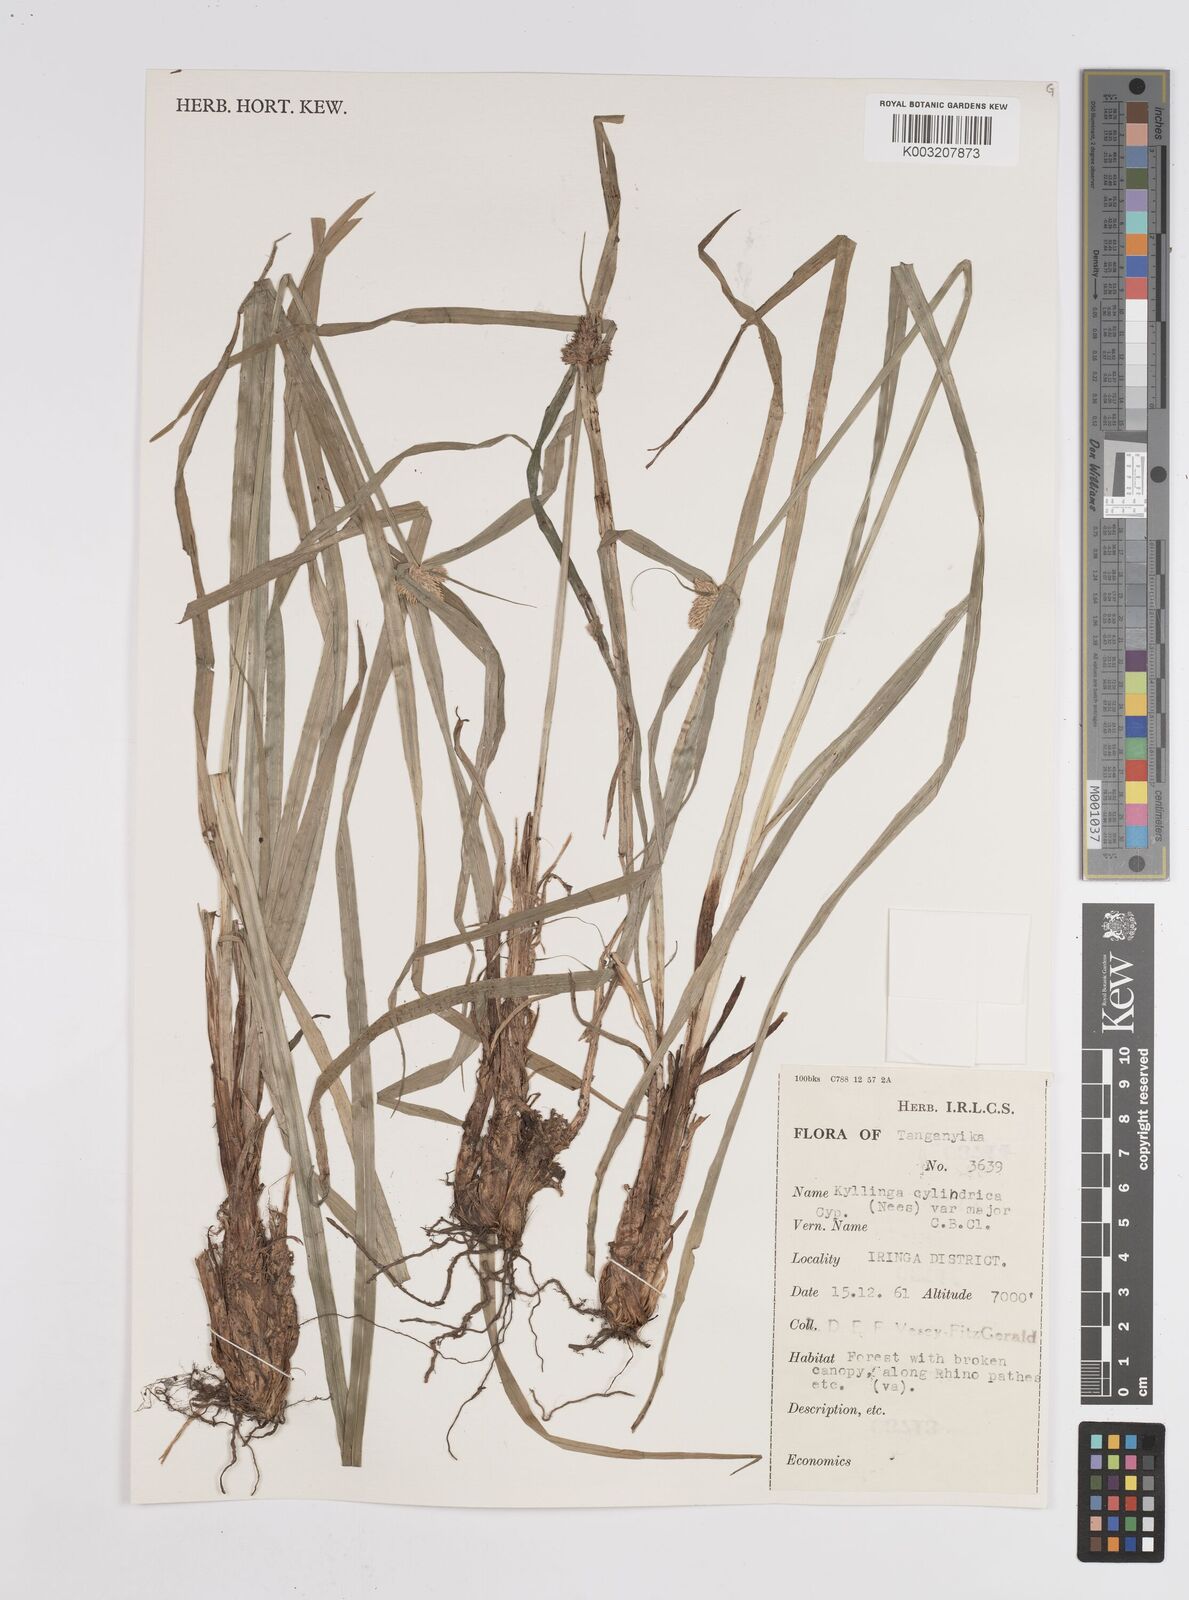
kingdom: Plantae
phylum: Tracheophyta
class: Liliopsida
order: Poales
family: Cyperaceae
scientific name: Cyperaceae
